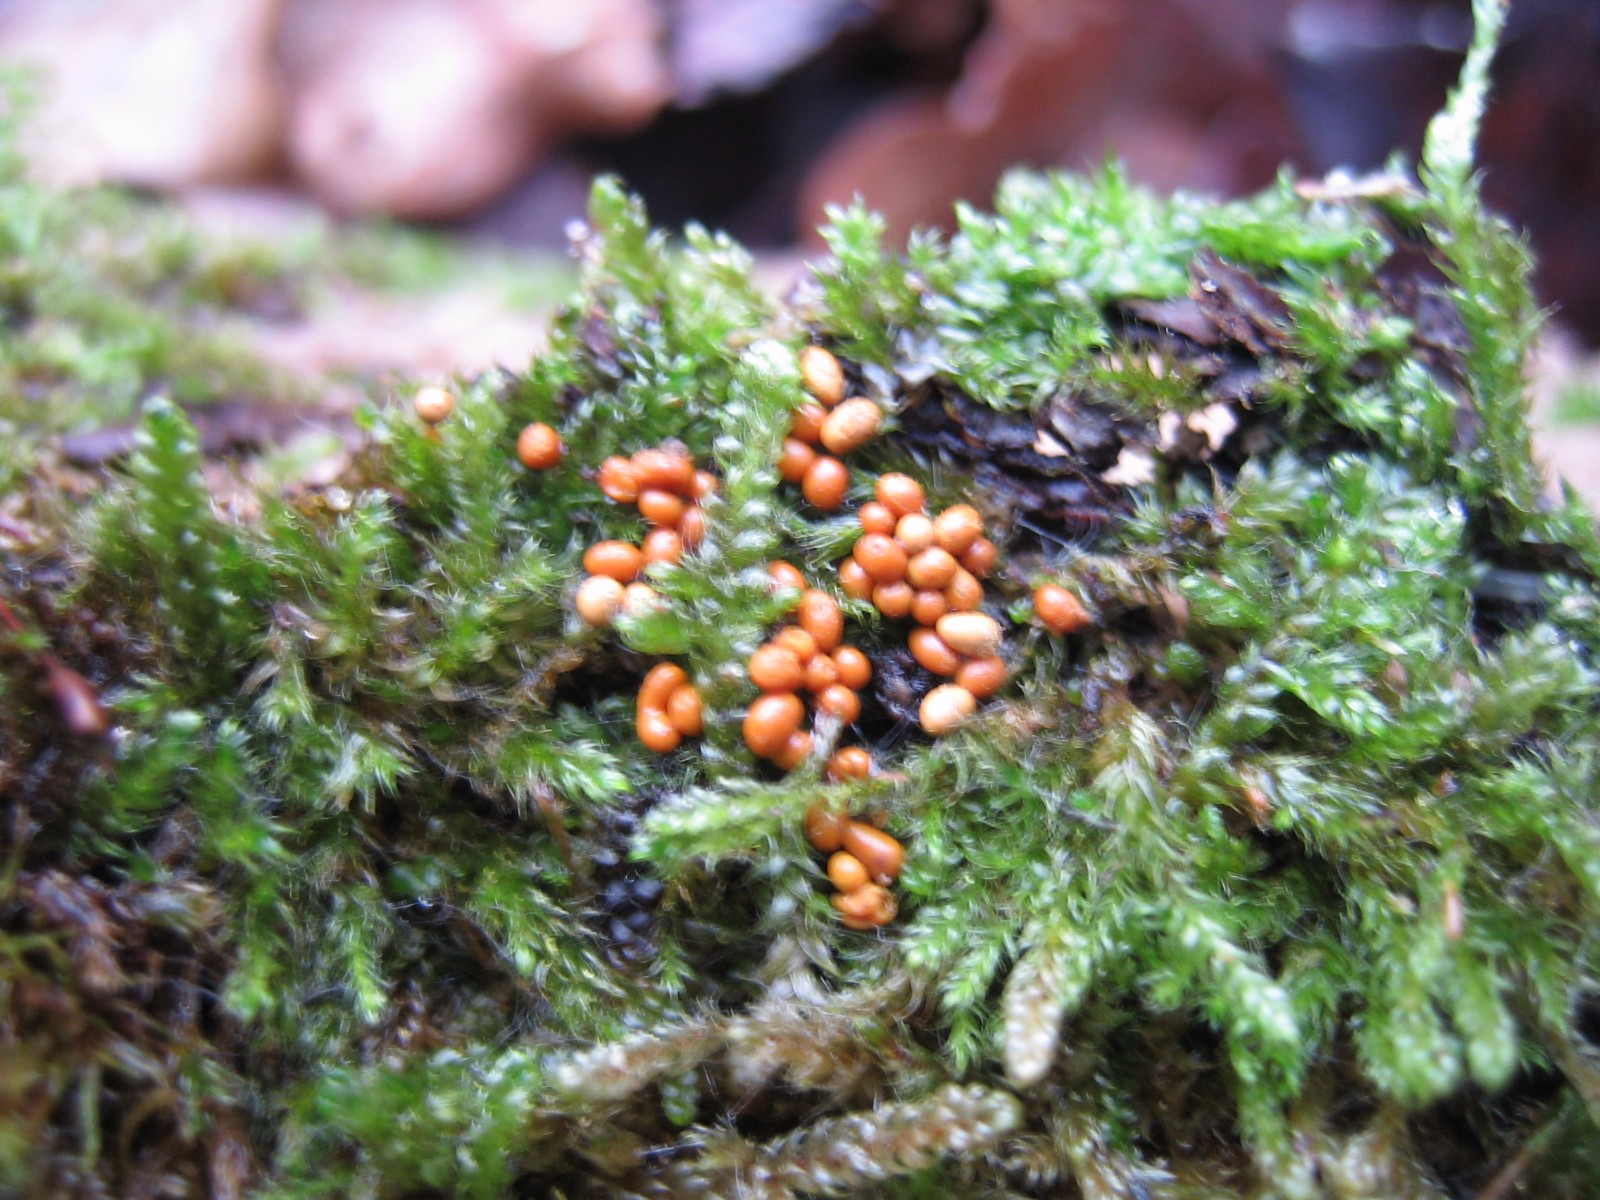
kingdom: Protozoa
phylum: Mycetozoa
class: Myxomycetes
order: Trichiales
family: Trichiaceae
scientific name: Trichiaceae
